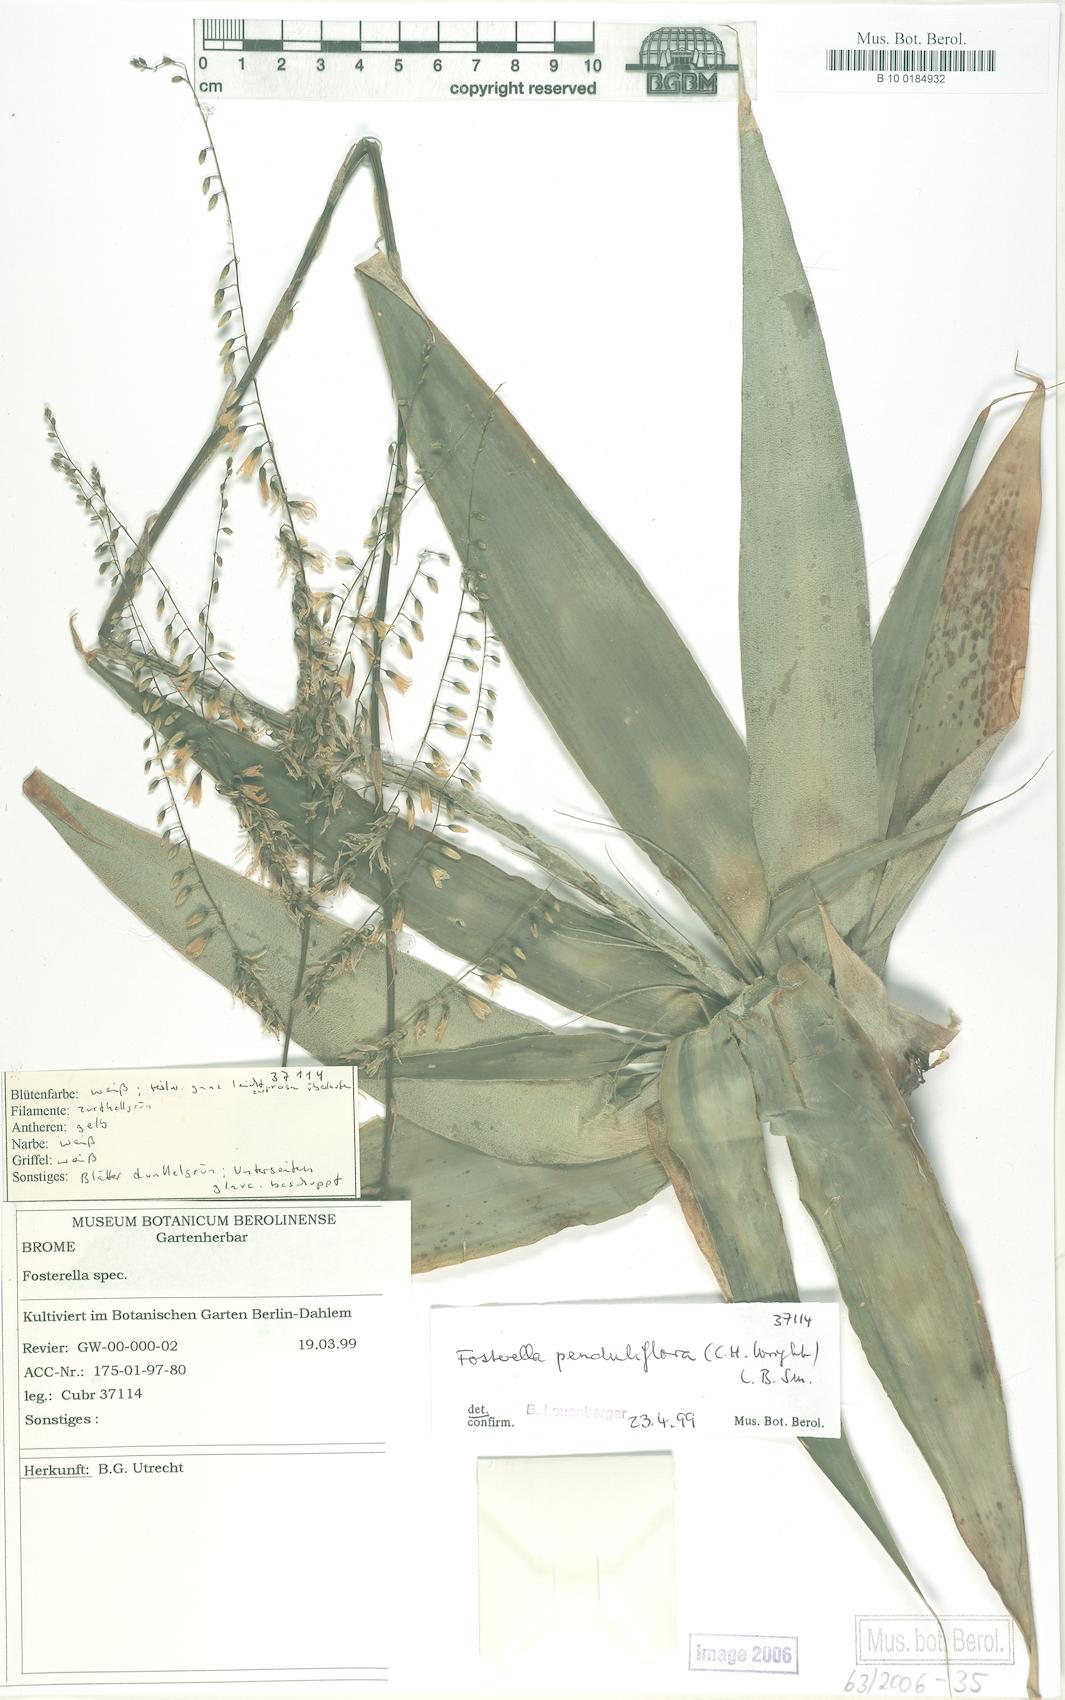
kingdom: Plantae
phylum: Tracheophyta
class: Liliopsida
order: Poales
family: Bromeliaceae
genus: Fosterella
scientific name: Fosterella penduliflora
